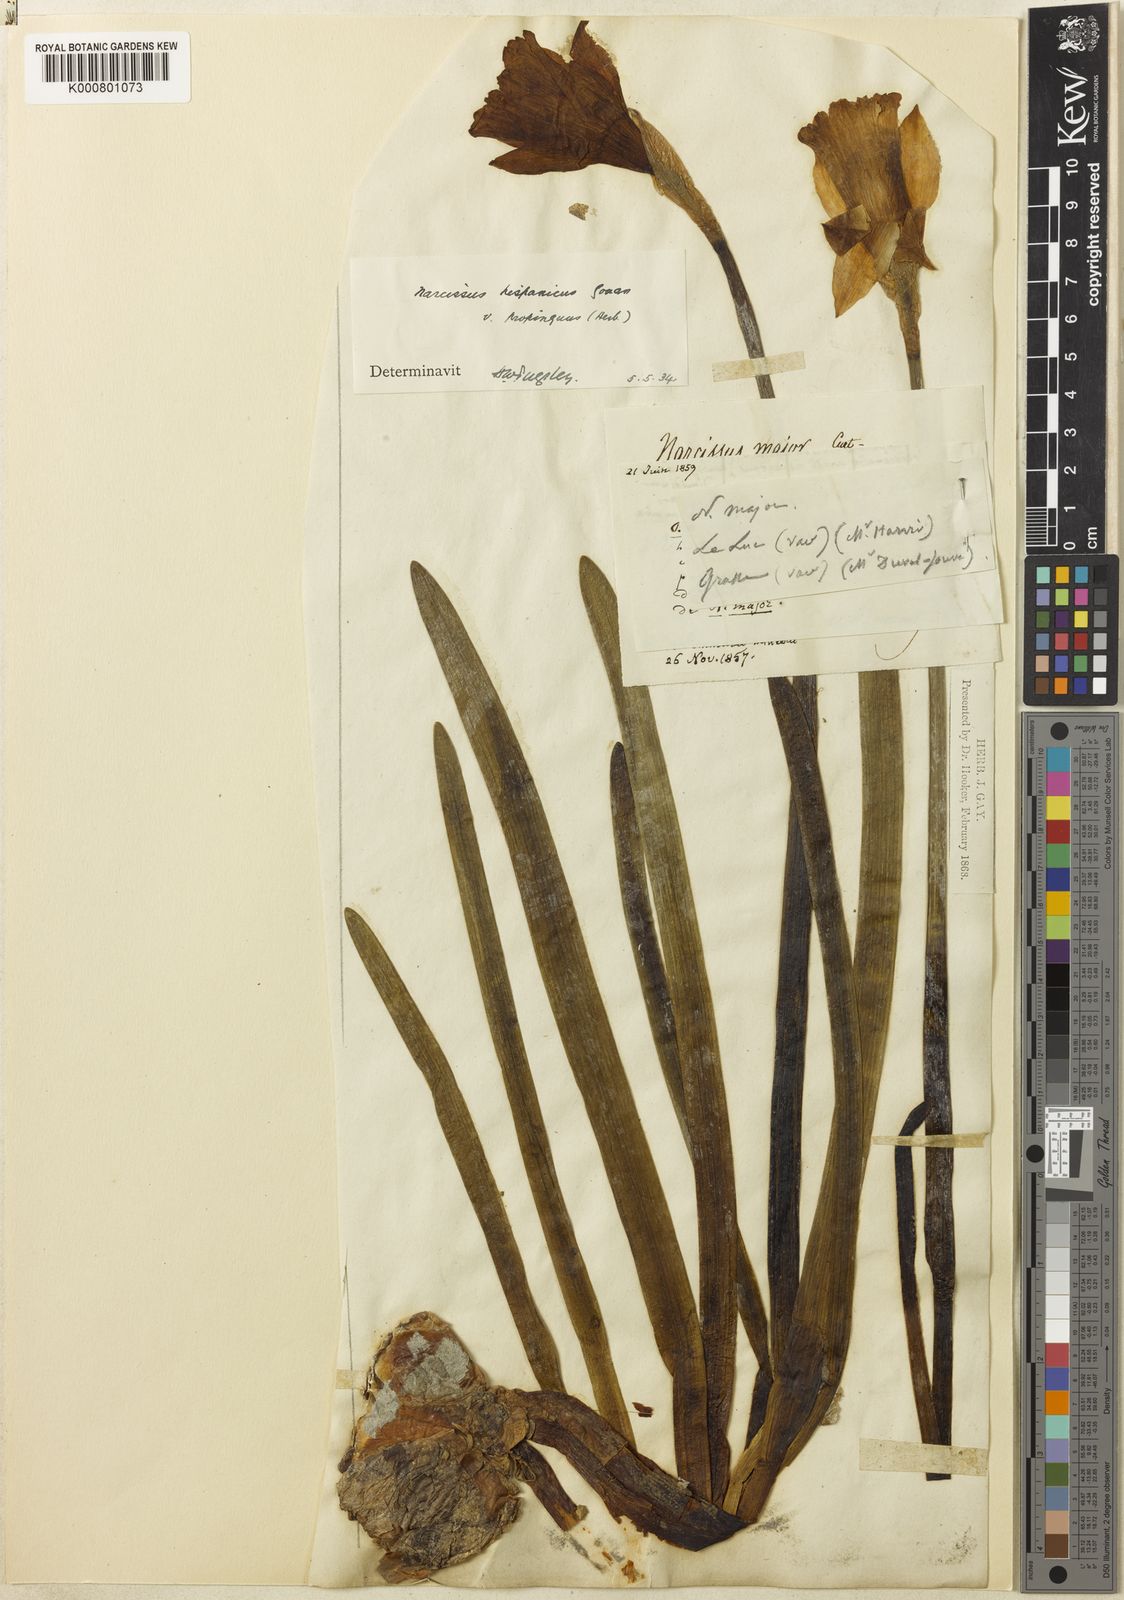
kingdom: Plantae
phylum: Tracheophyta
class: Liliopsida
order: Asparagales
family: Amaryllidaceae
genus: Narcissus
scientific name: Narcissus hispanicus
